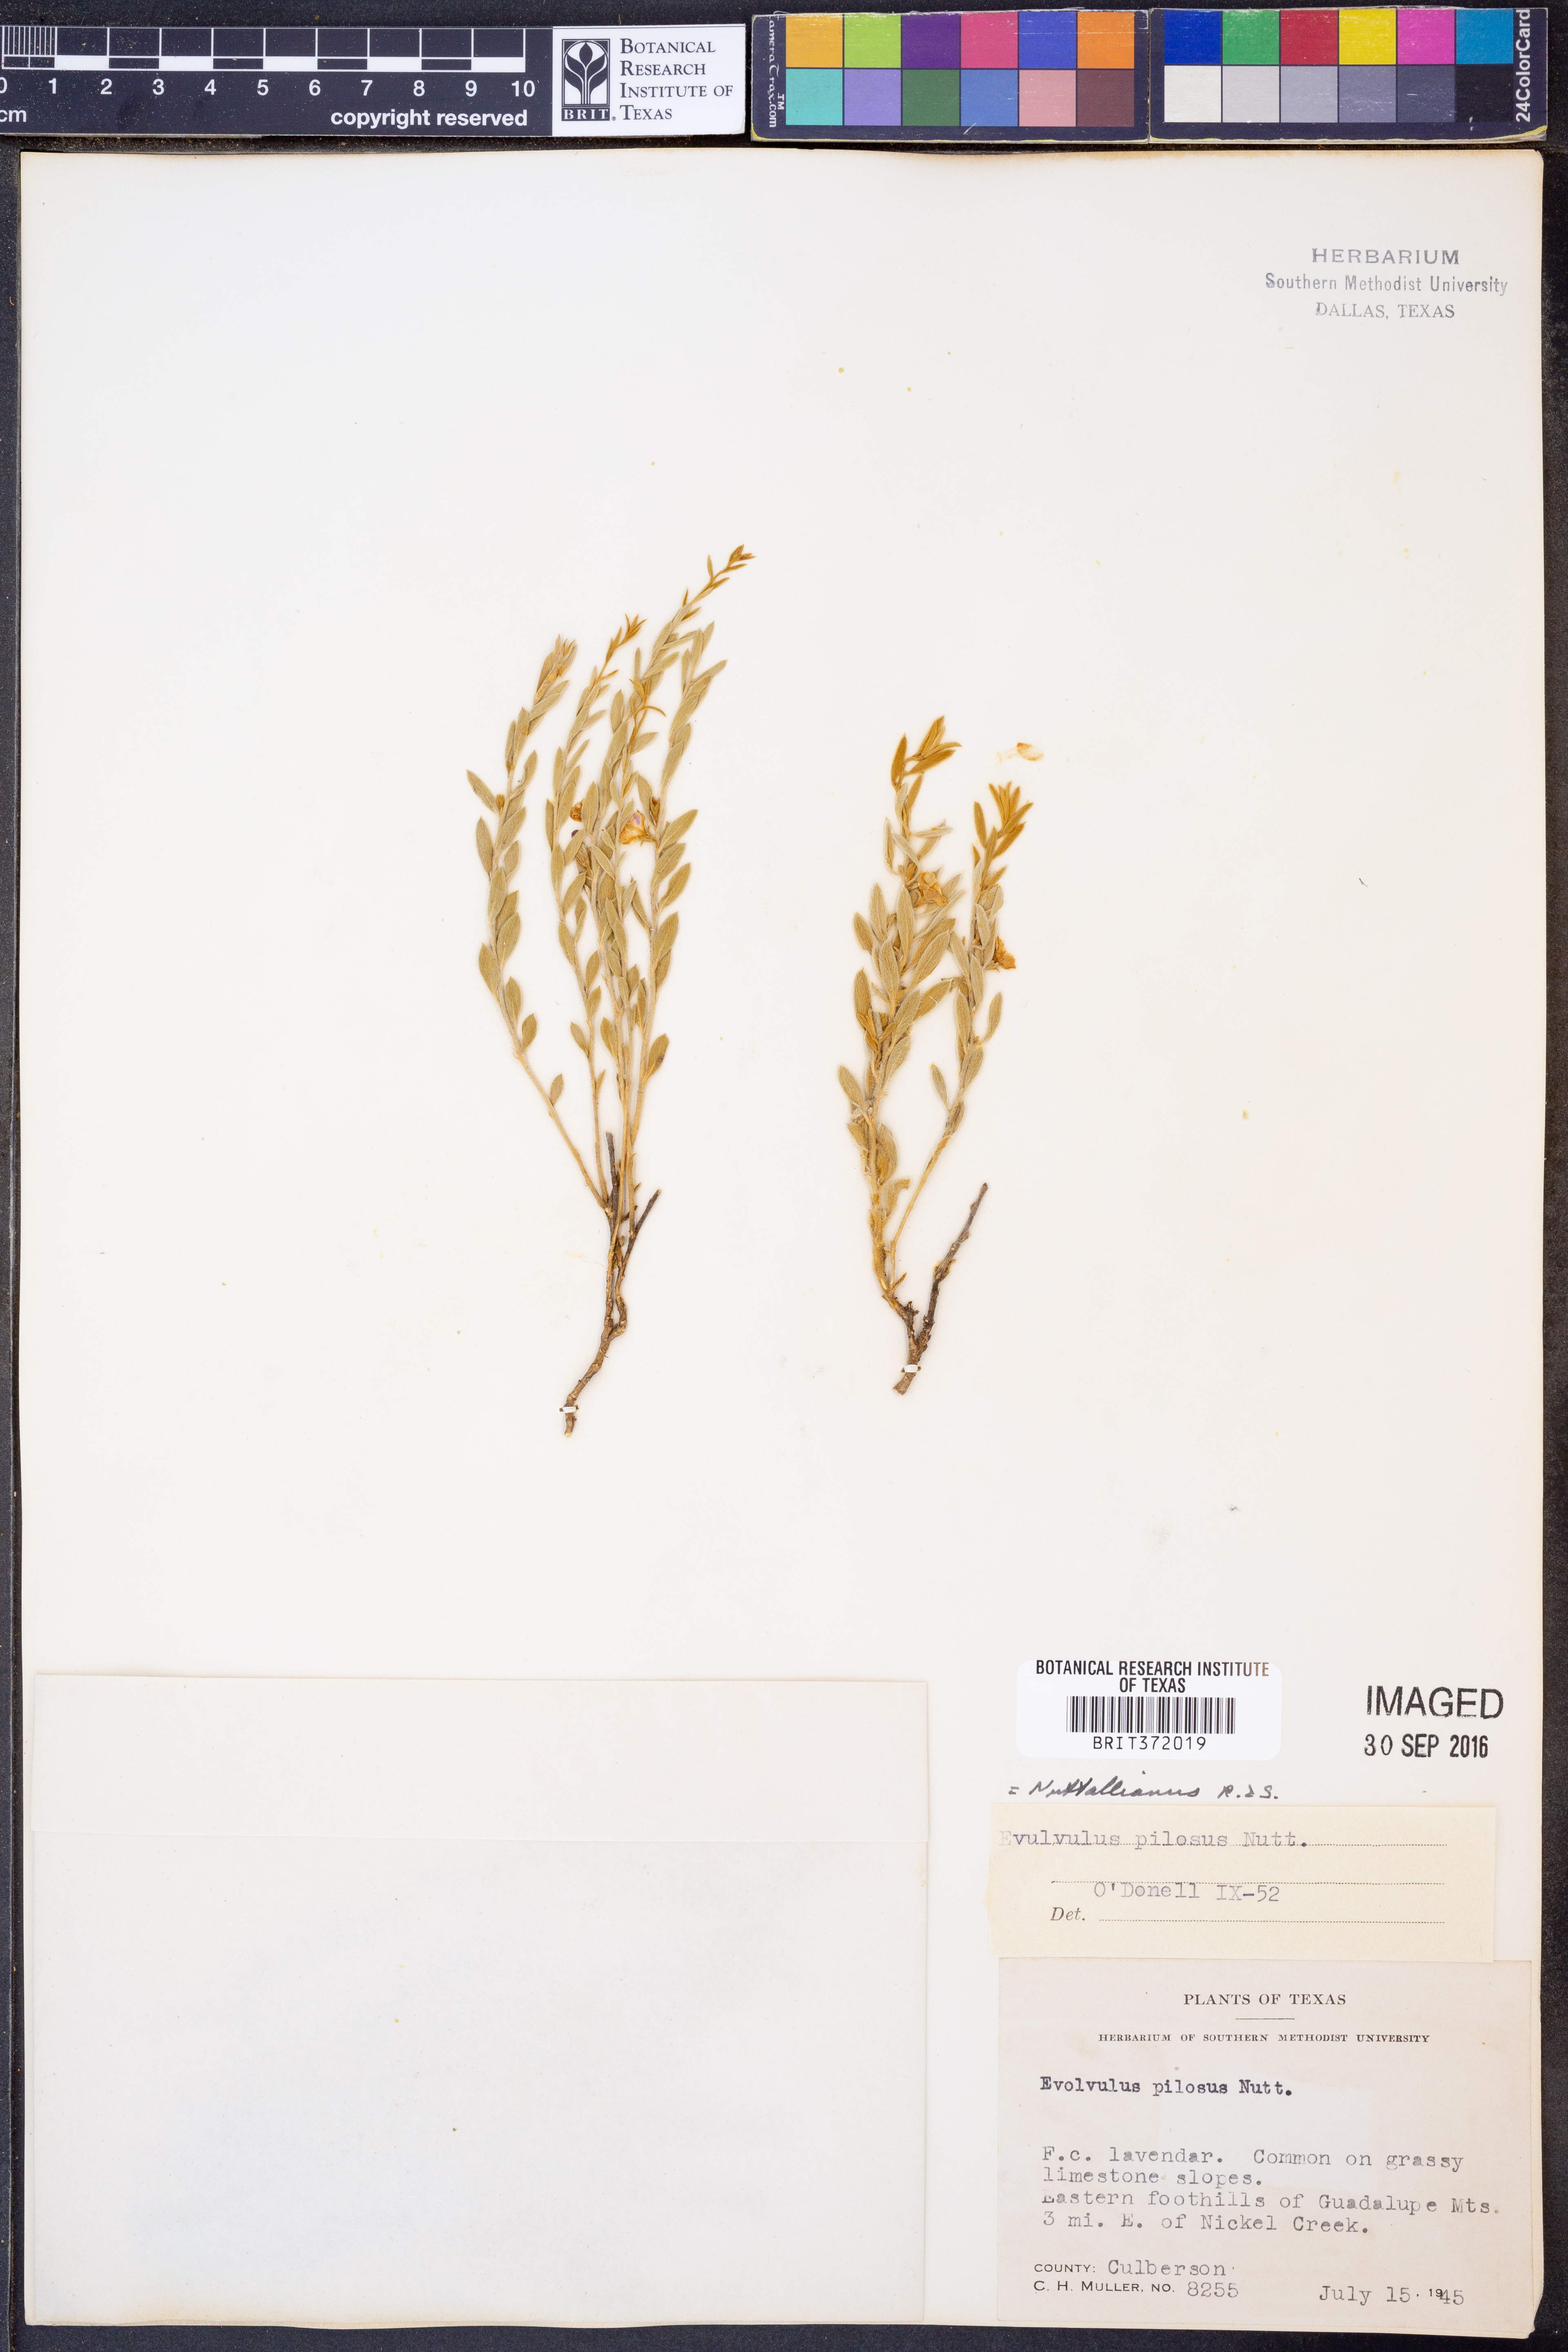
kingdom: Plantae
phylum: Tracheophyta
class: Magnoliopsida
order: Solanales
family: Convolvulaceae
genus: Evolvulus
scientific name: Evolvulus nuttallianus
